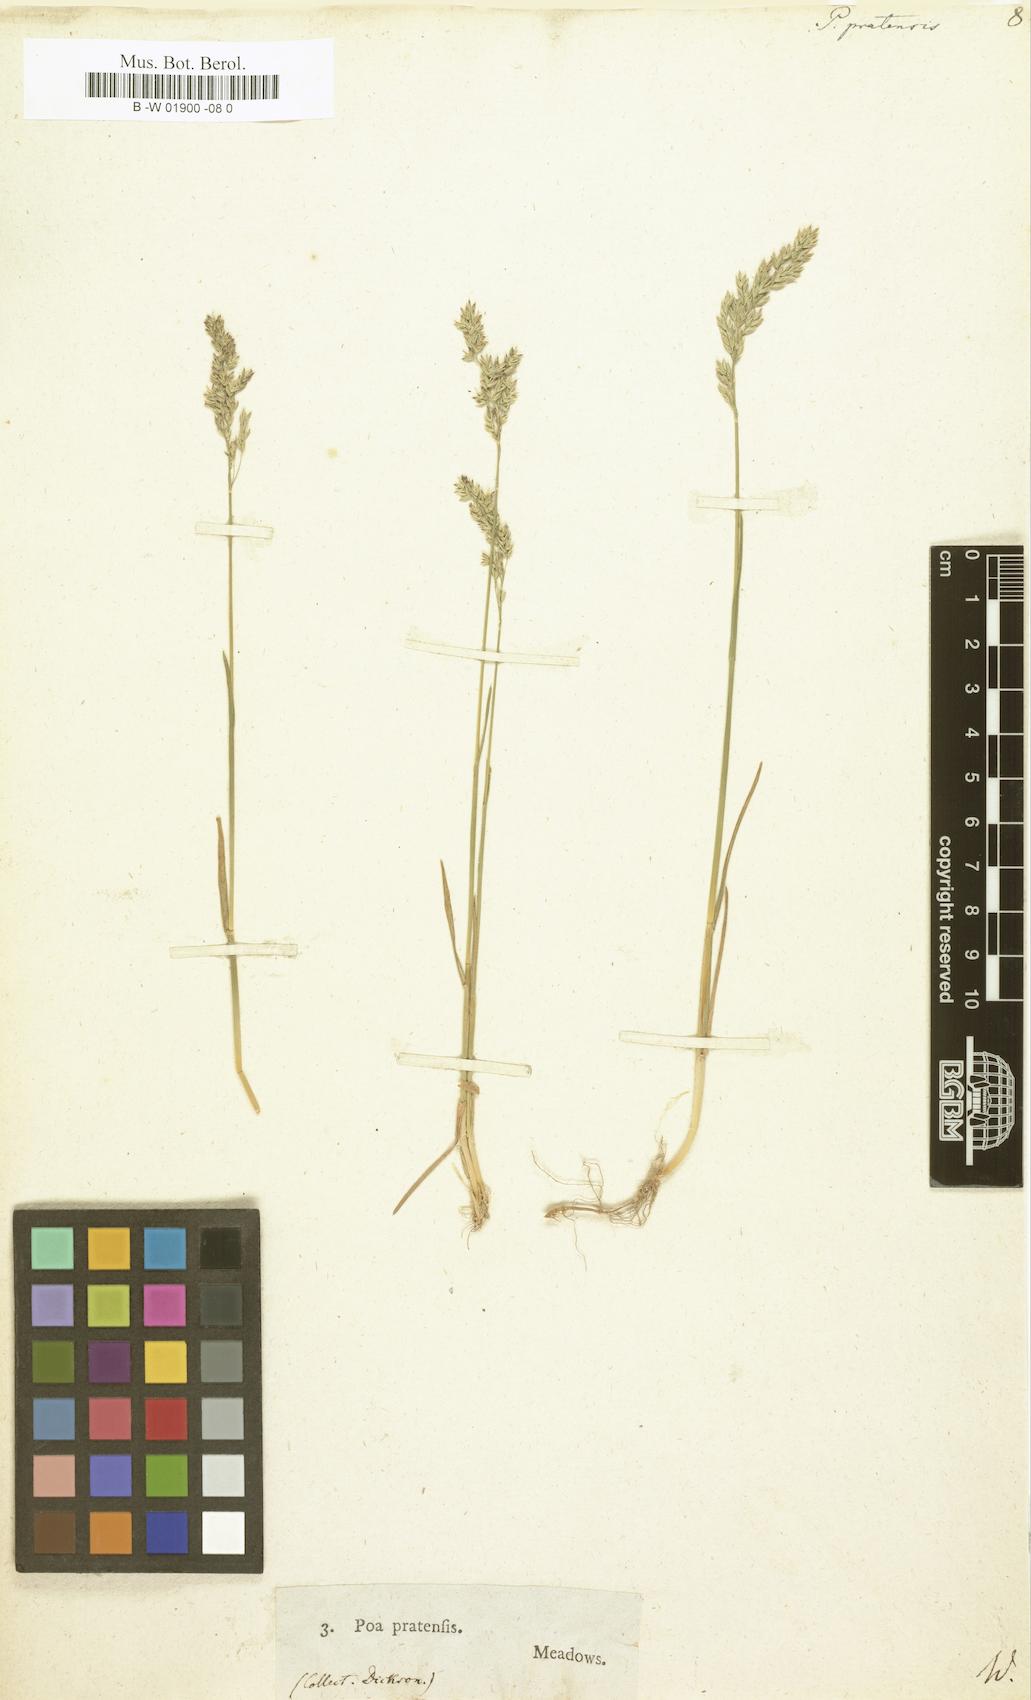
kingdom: Plantae
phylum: Tracheophyta
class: Liliopsida
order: Poales
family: Poaceae
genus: Poa
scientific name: Poa pratensis
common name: Kentucky bluegrass
